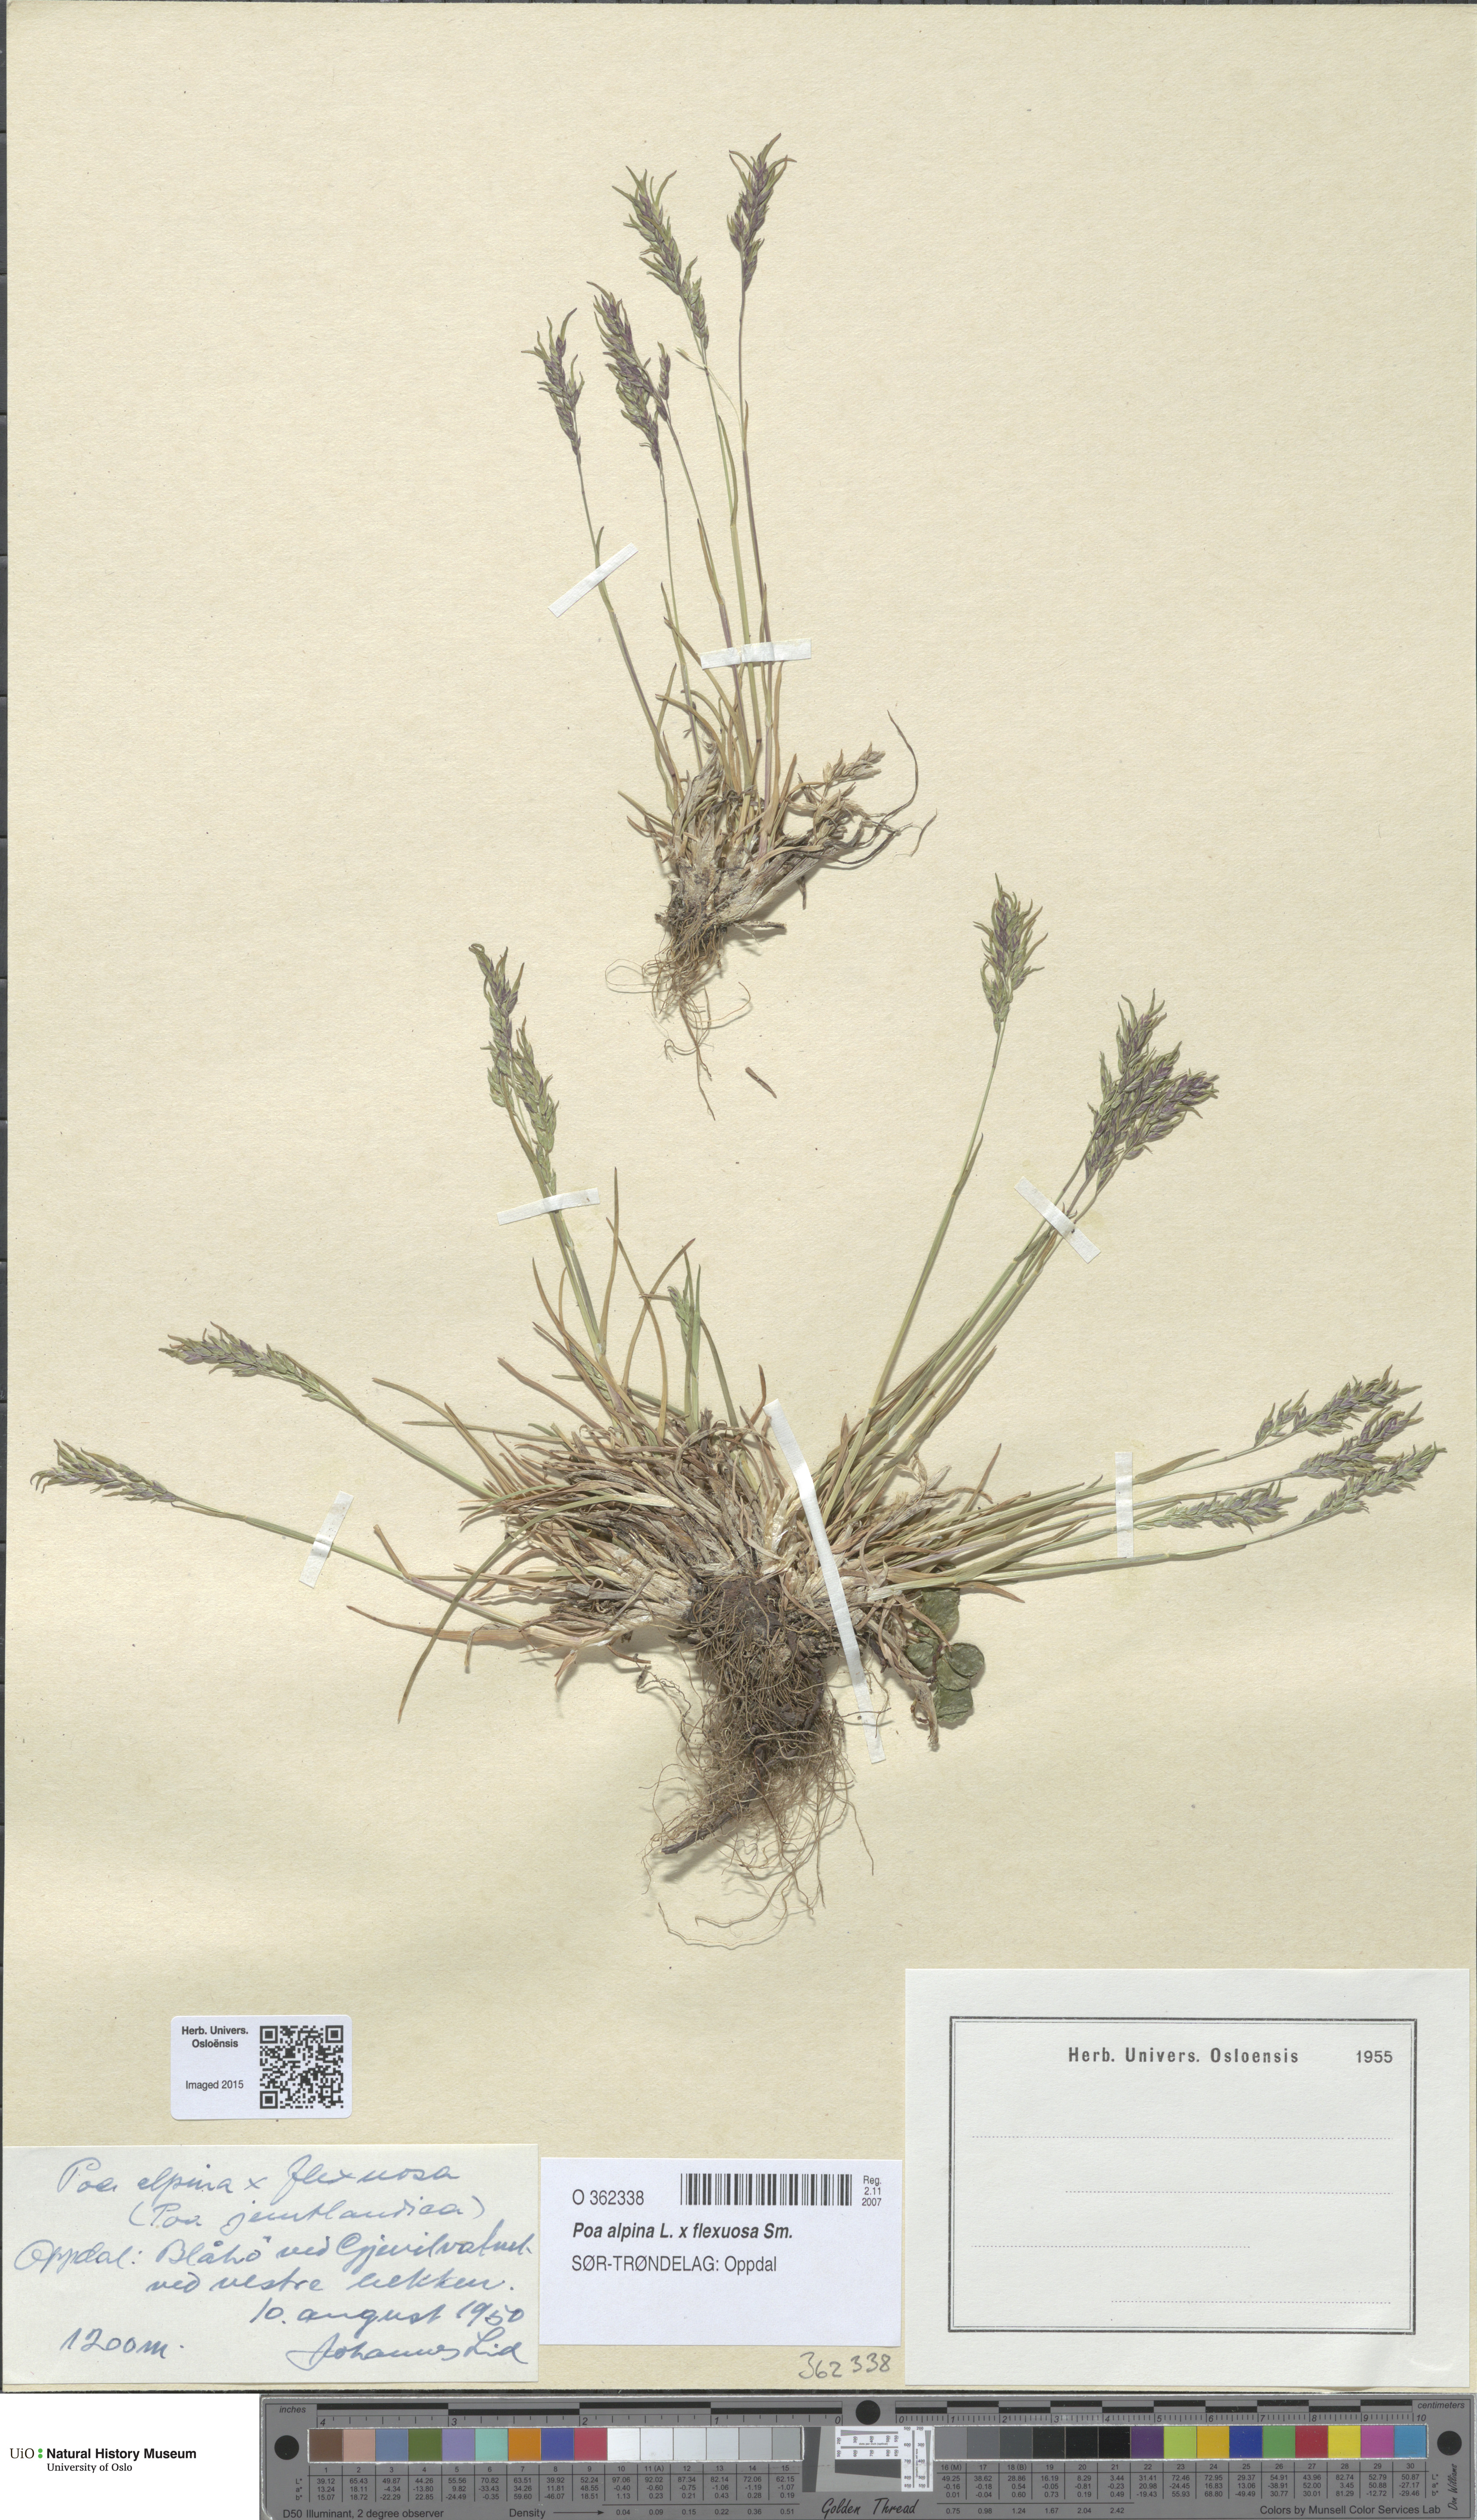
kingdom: Plantae
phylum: Tracheophyta
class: Liliopsida
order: Poales
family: Poaceae
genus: Poa
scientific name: Poa
